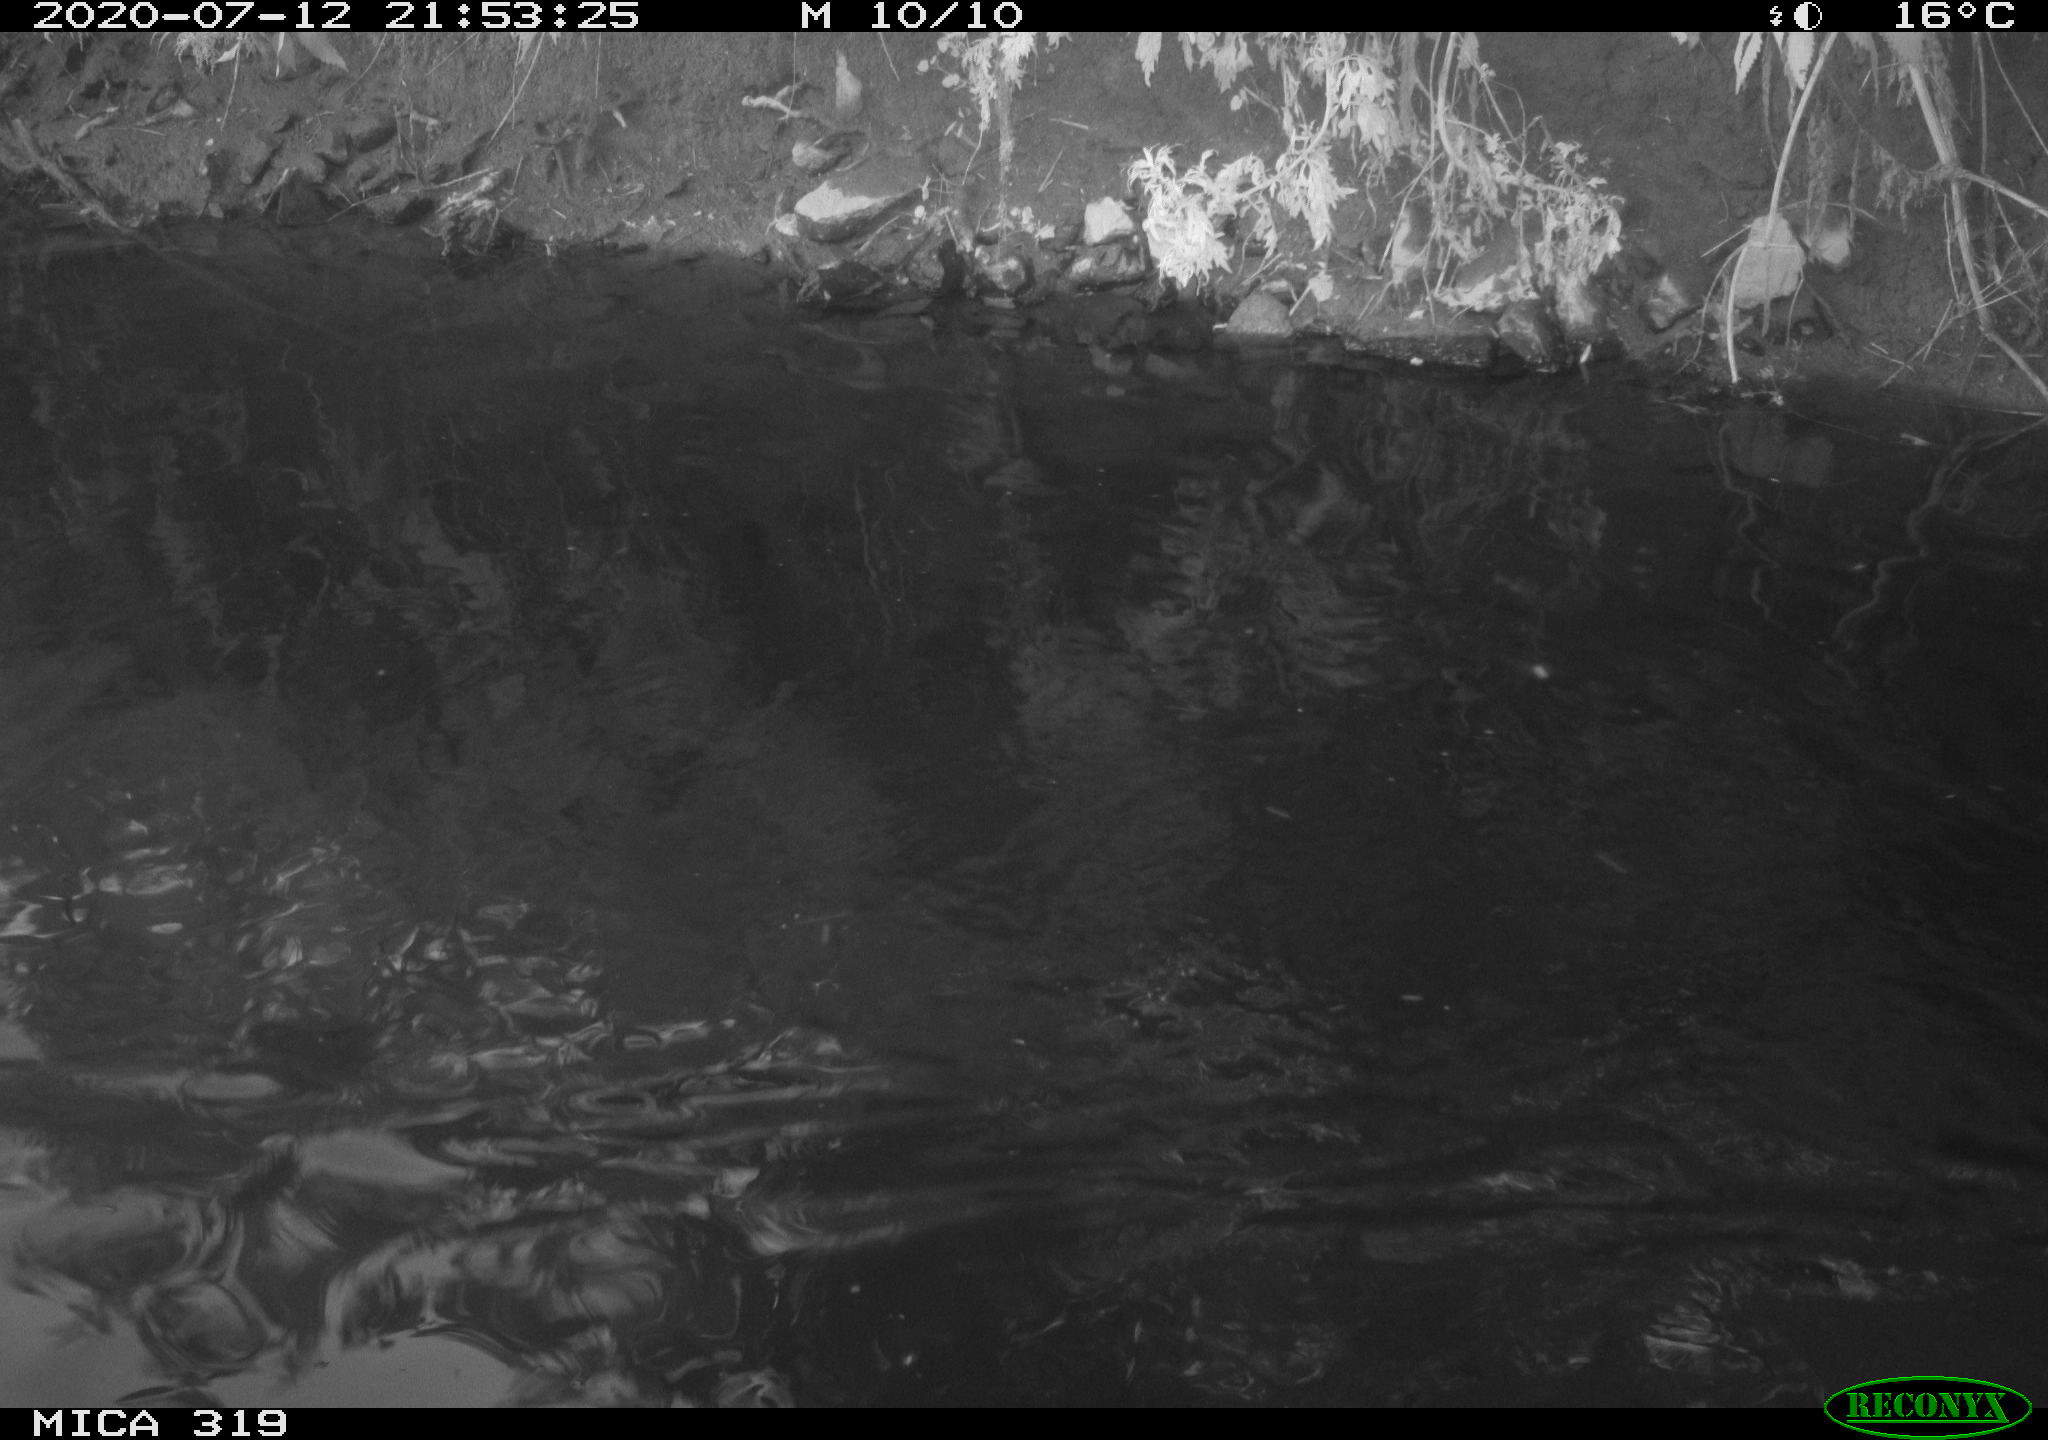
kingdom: Animalia
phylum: Chordata
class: Aves
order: Anseriformes
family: Anatidae
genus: Anas
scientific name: Anas platyrhynchos
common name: Mallard
